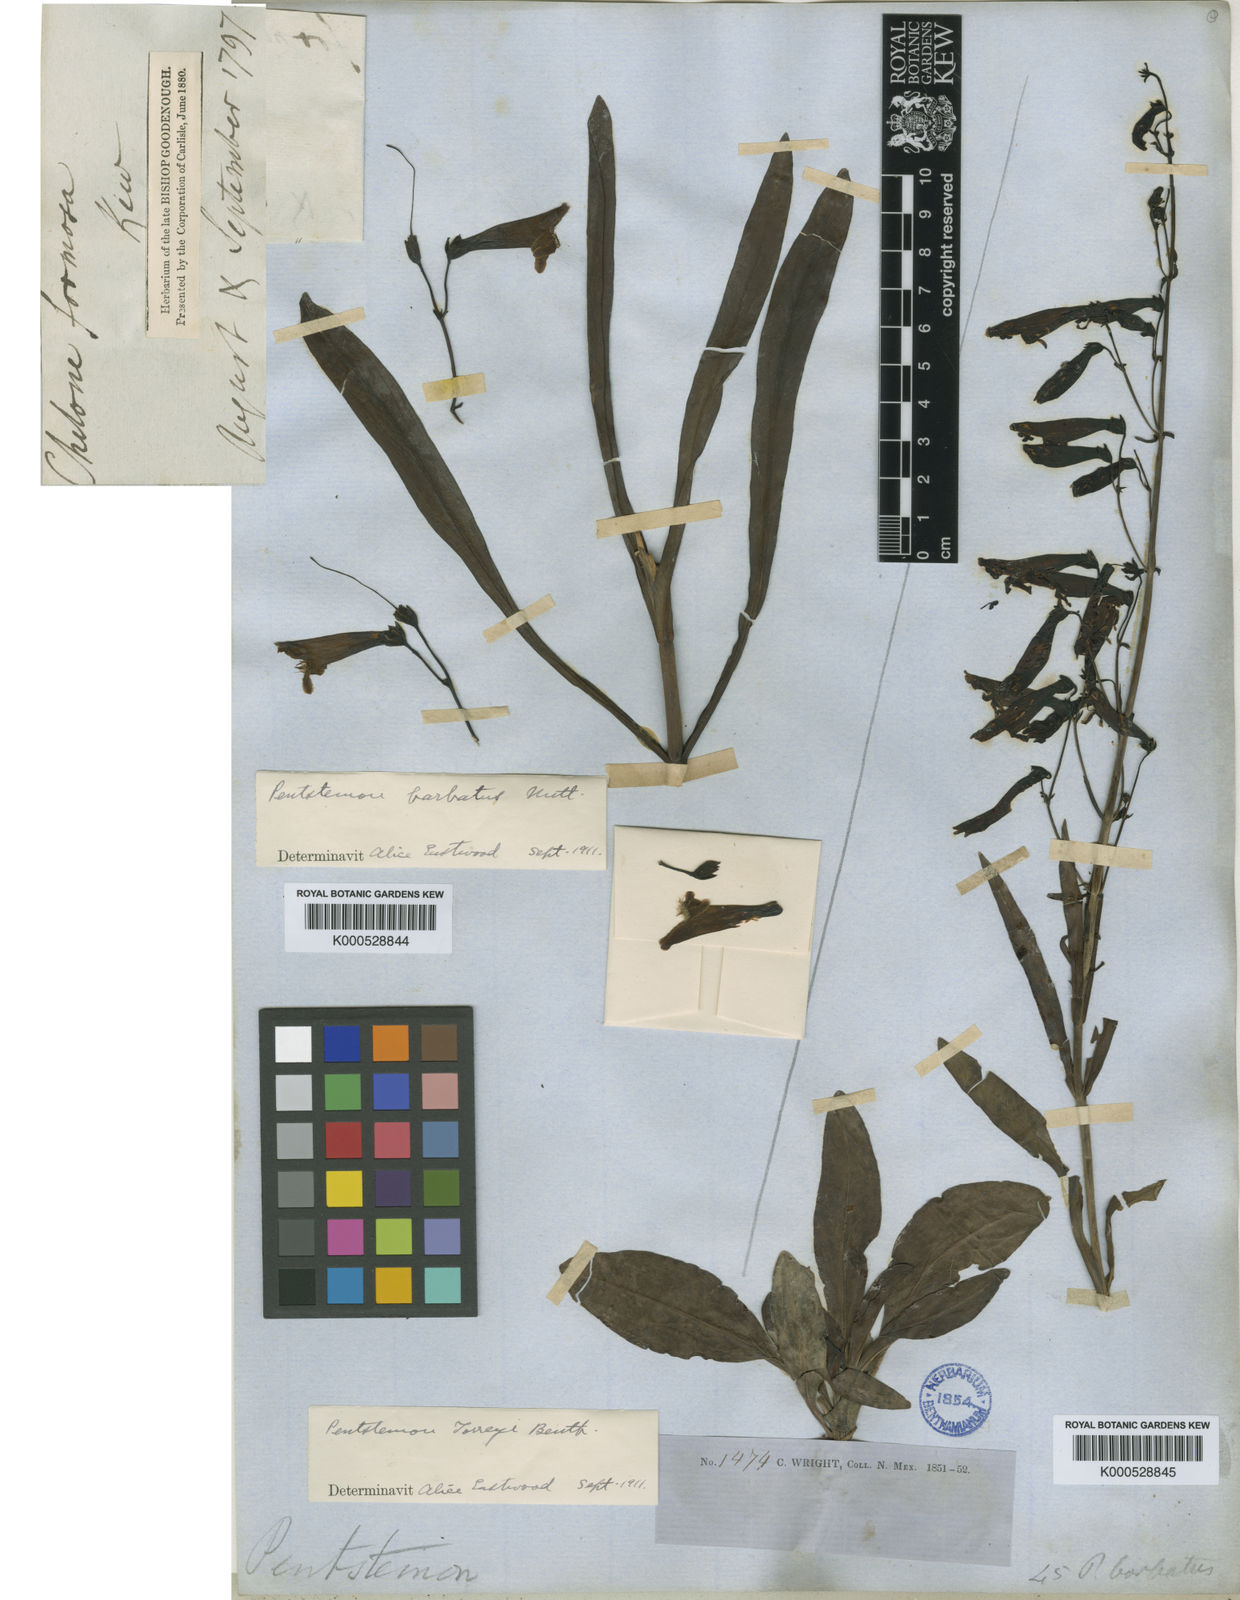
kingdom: Plantae
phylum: Tracheophyta
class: Magnoliopsida
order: Lamiales
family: Plantaginaceae
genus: Penstemon
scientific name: Penstemon
